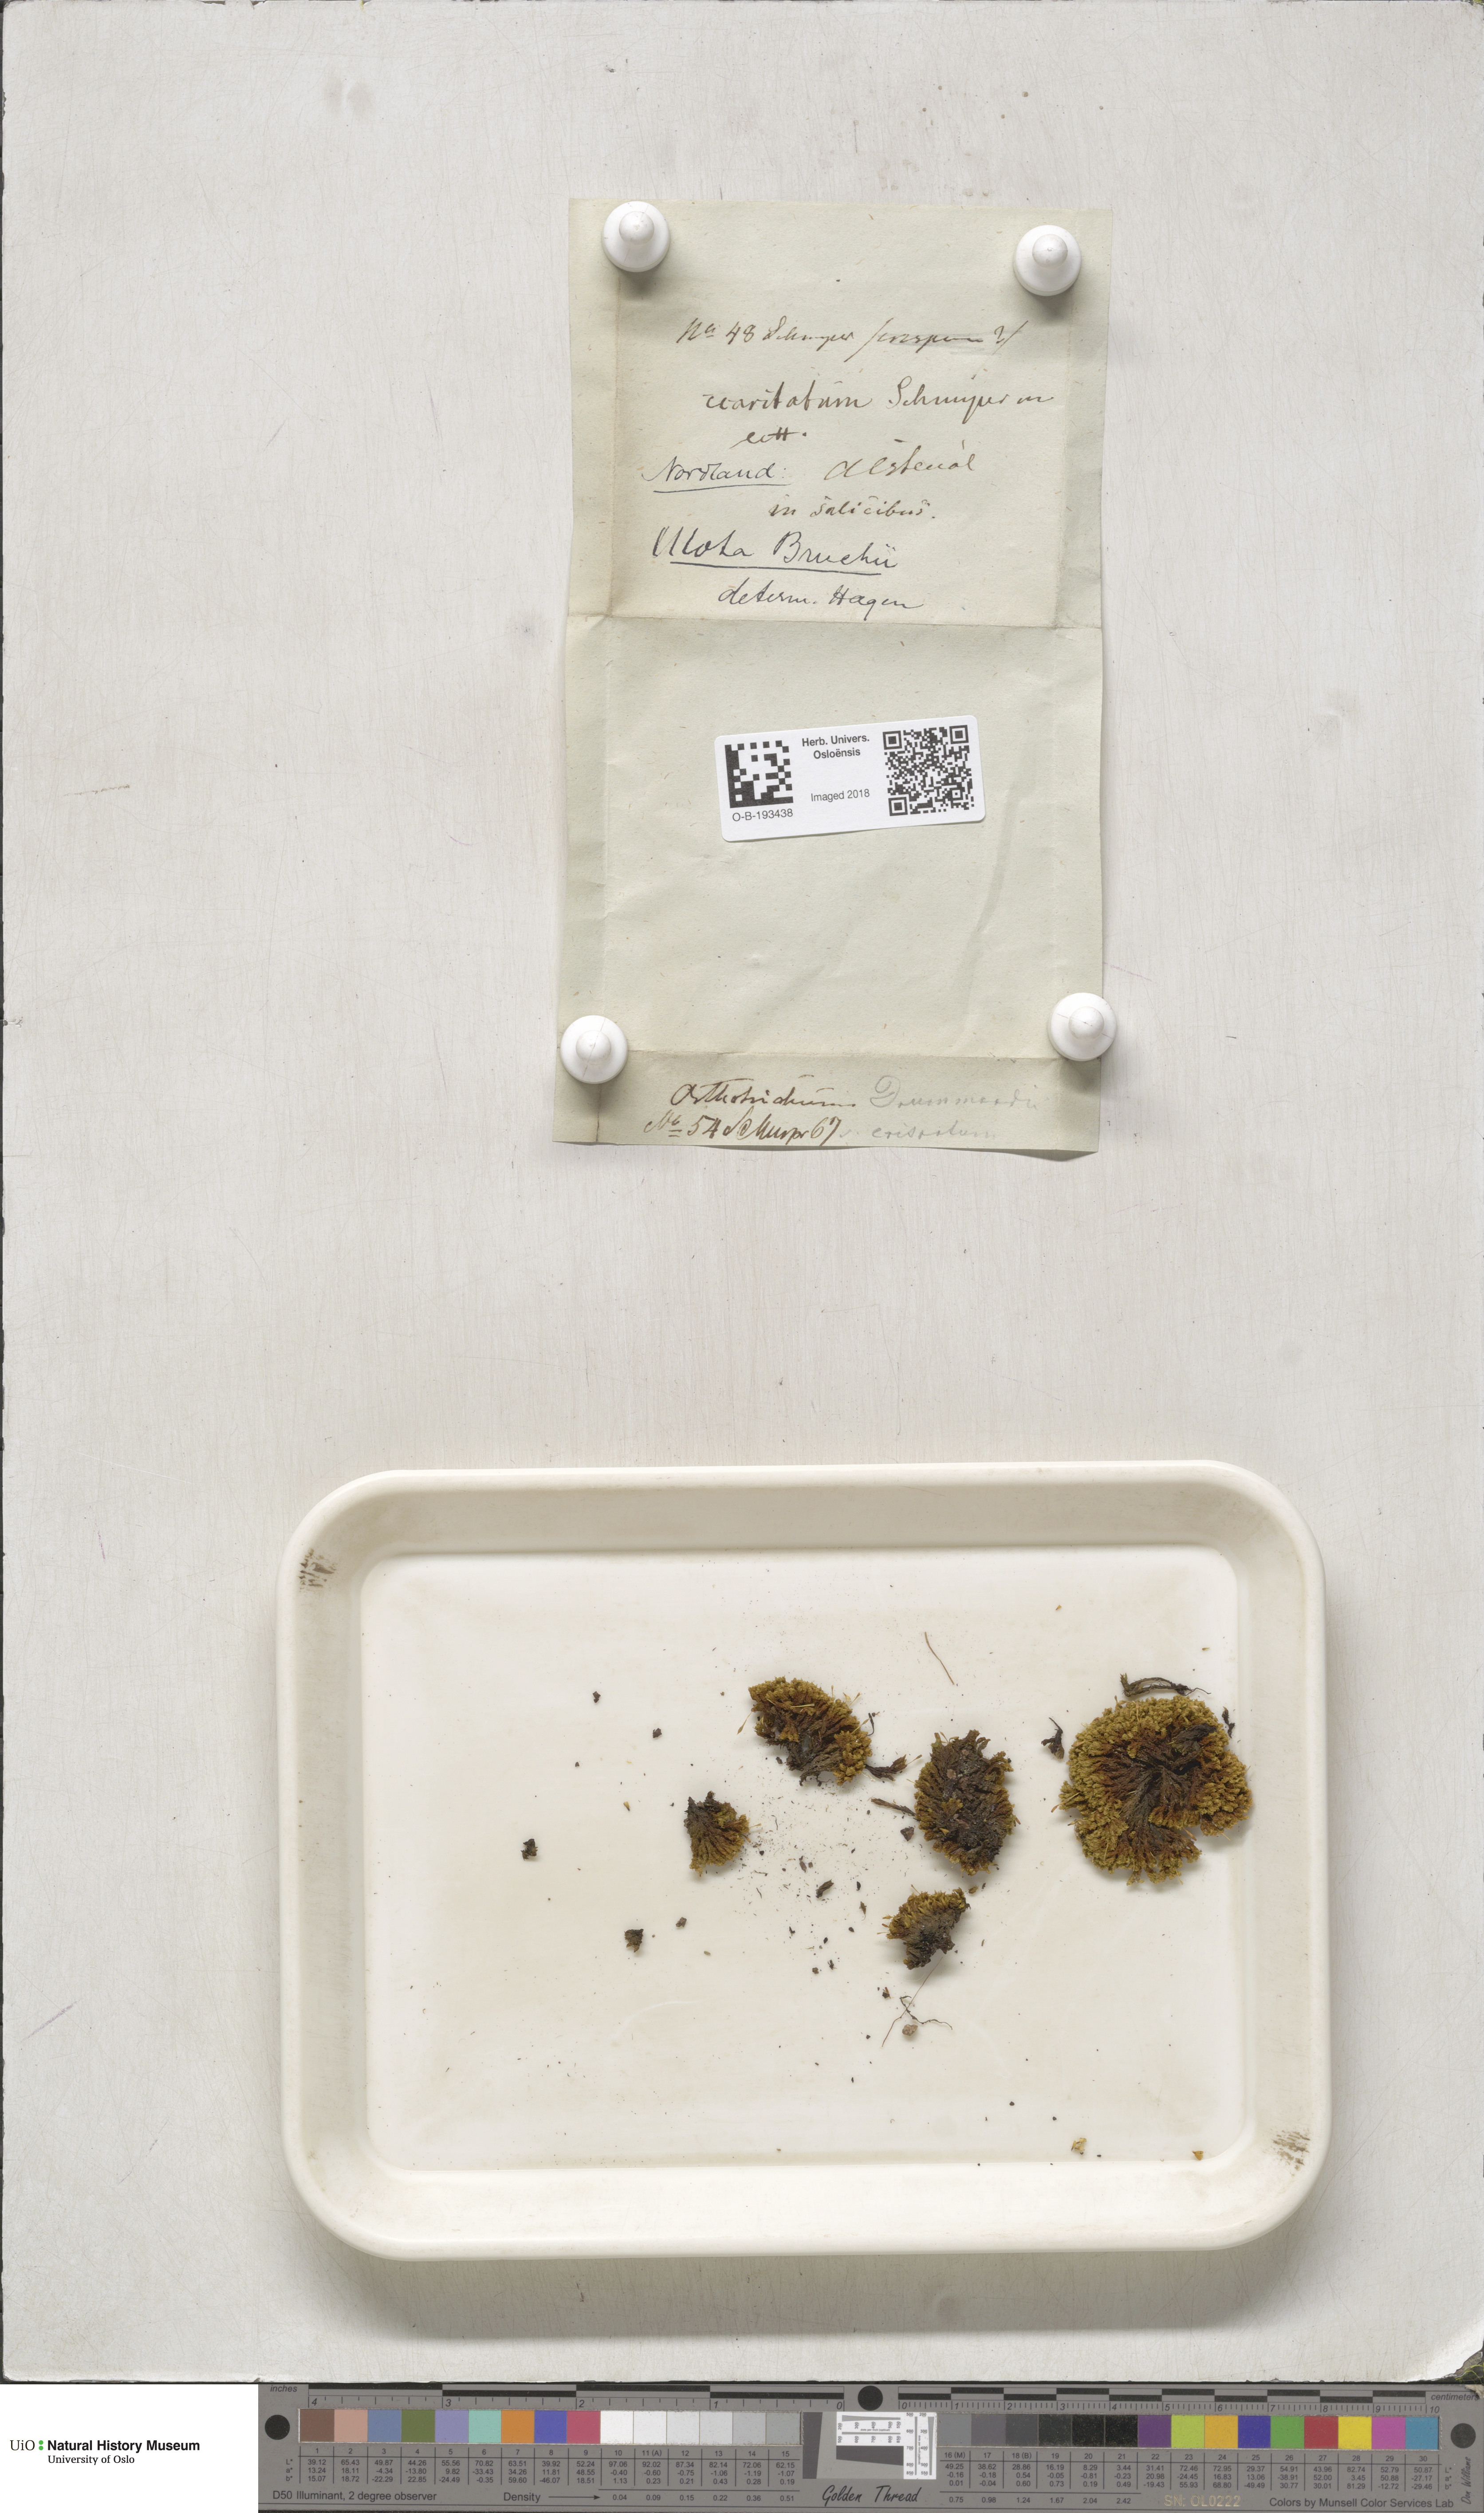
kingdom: Plantae
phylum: Bryophyta
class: Bryopsida
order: Orthotrichales
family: Orthotrichaceae
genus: Ulota
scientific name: Ulota bruchii
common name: Bruch's pincushion
